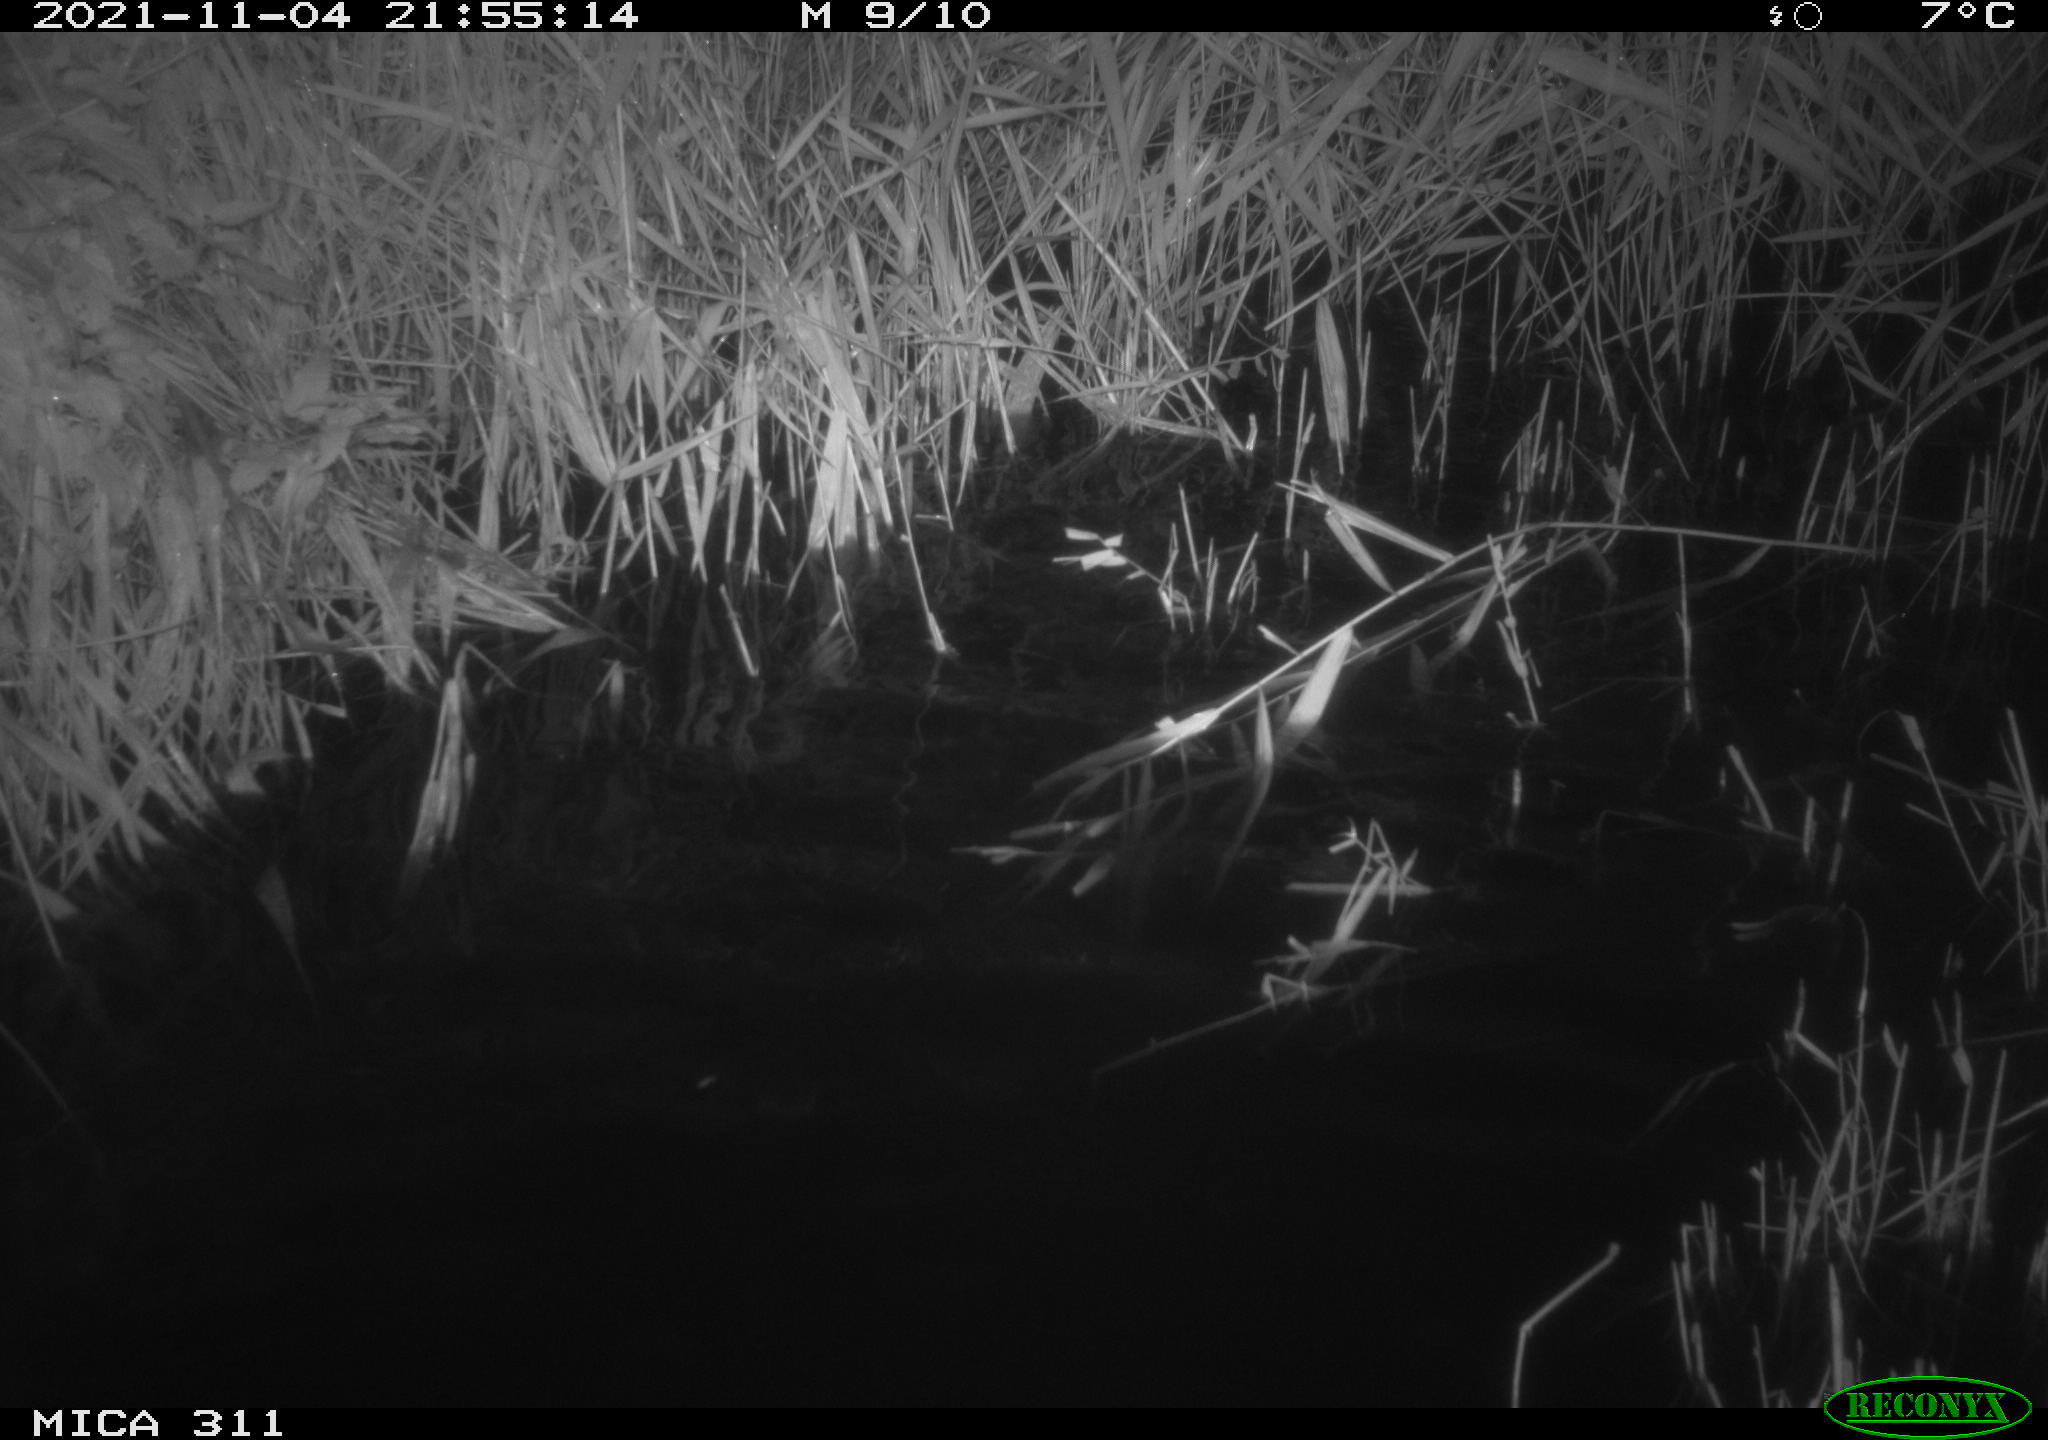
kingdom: Animalia
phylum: Chordata
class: Mammalia
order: Rodentia
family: Cricetidae
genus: Ondatra
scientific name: Ondatra zibethicus
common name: Muskrat
